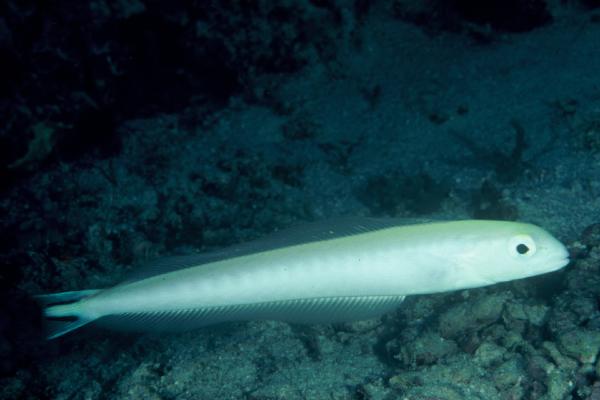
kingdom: Animalia
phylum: Chordata
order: Perciformes
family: Malacanthidae
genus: Malacanthus
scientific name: Malacanthus brevirostris
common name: Flagtail blanquillo
